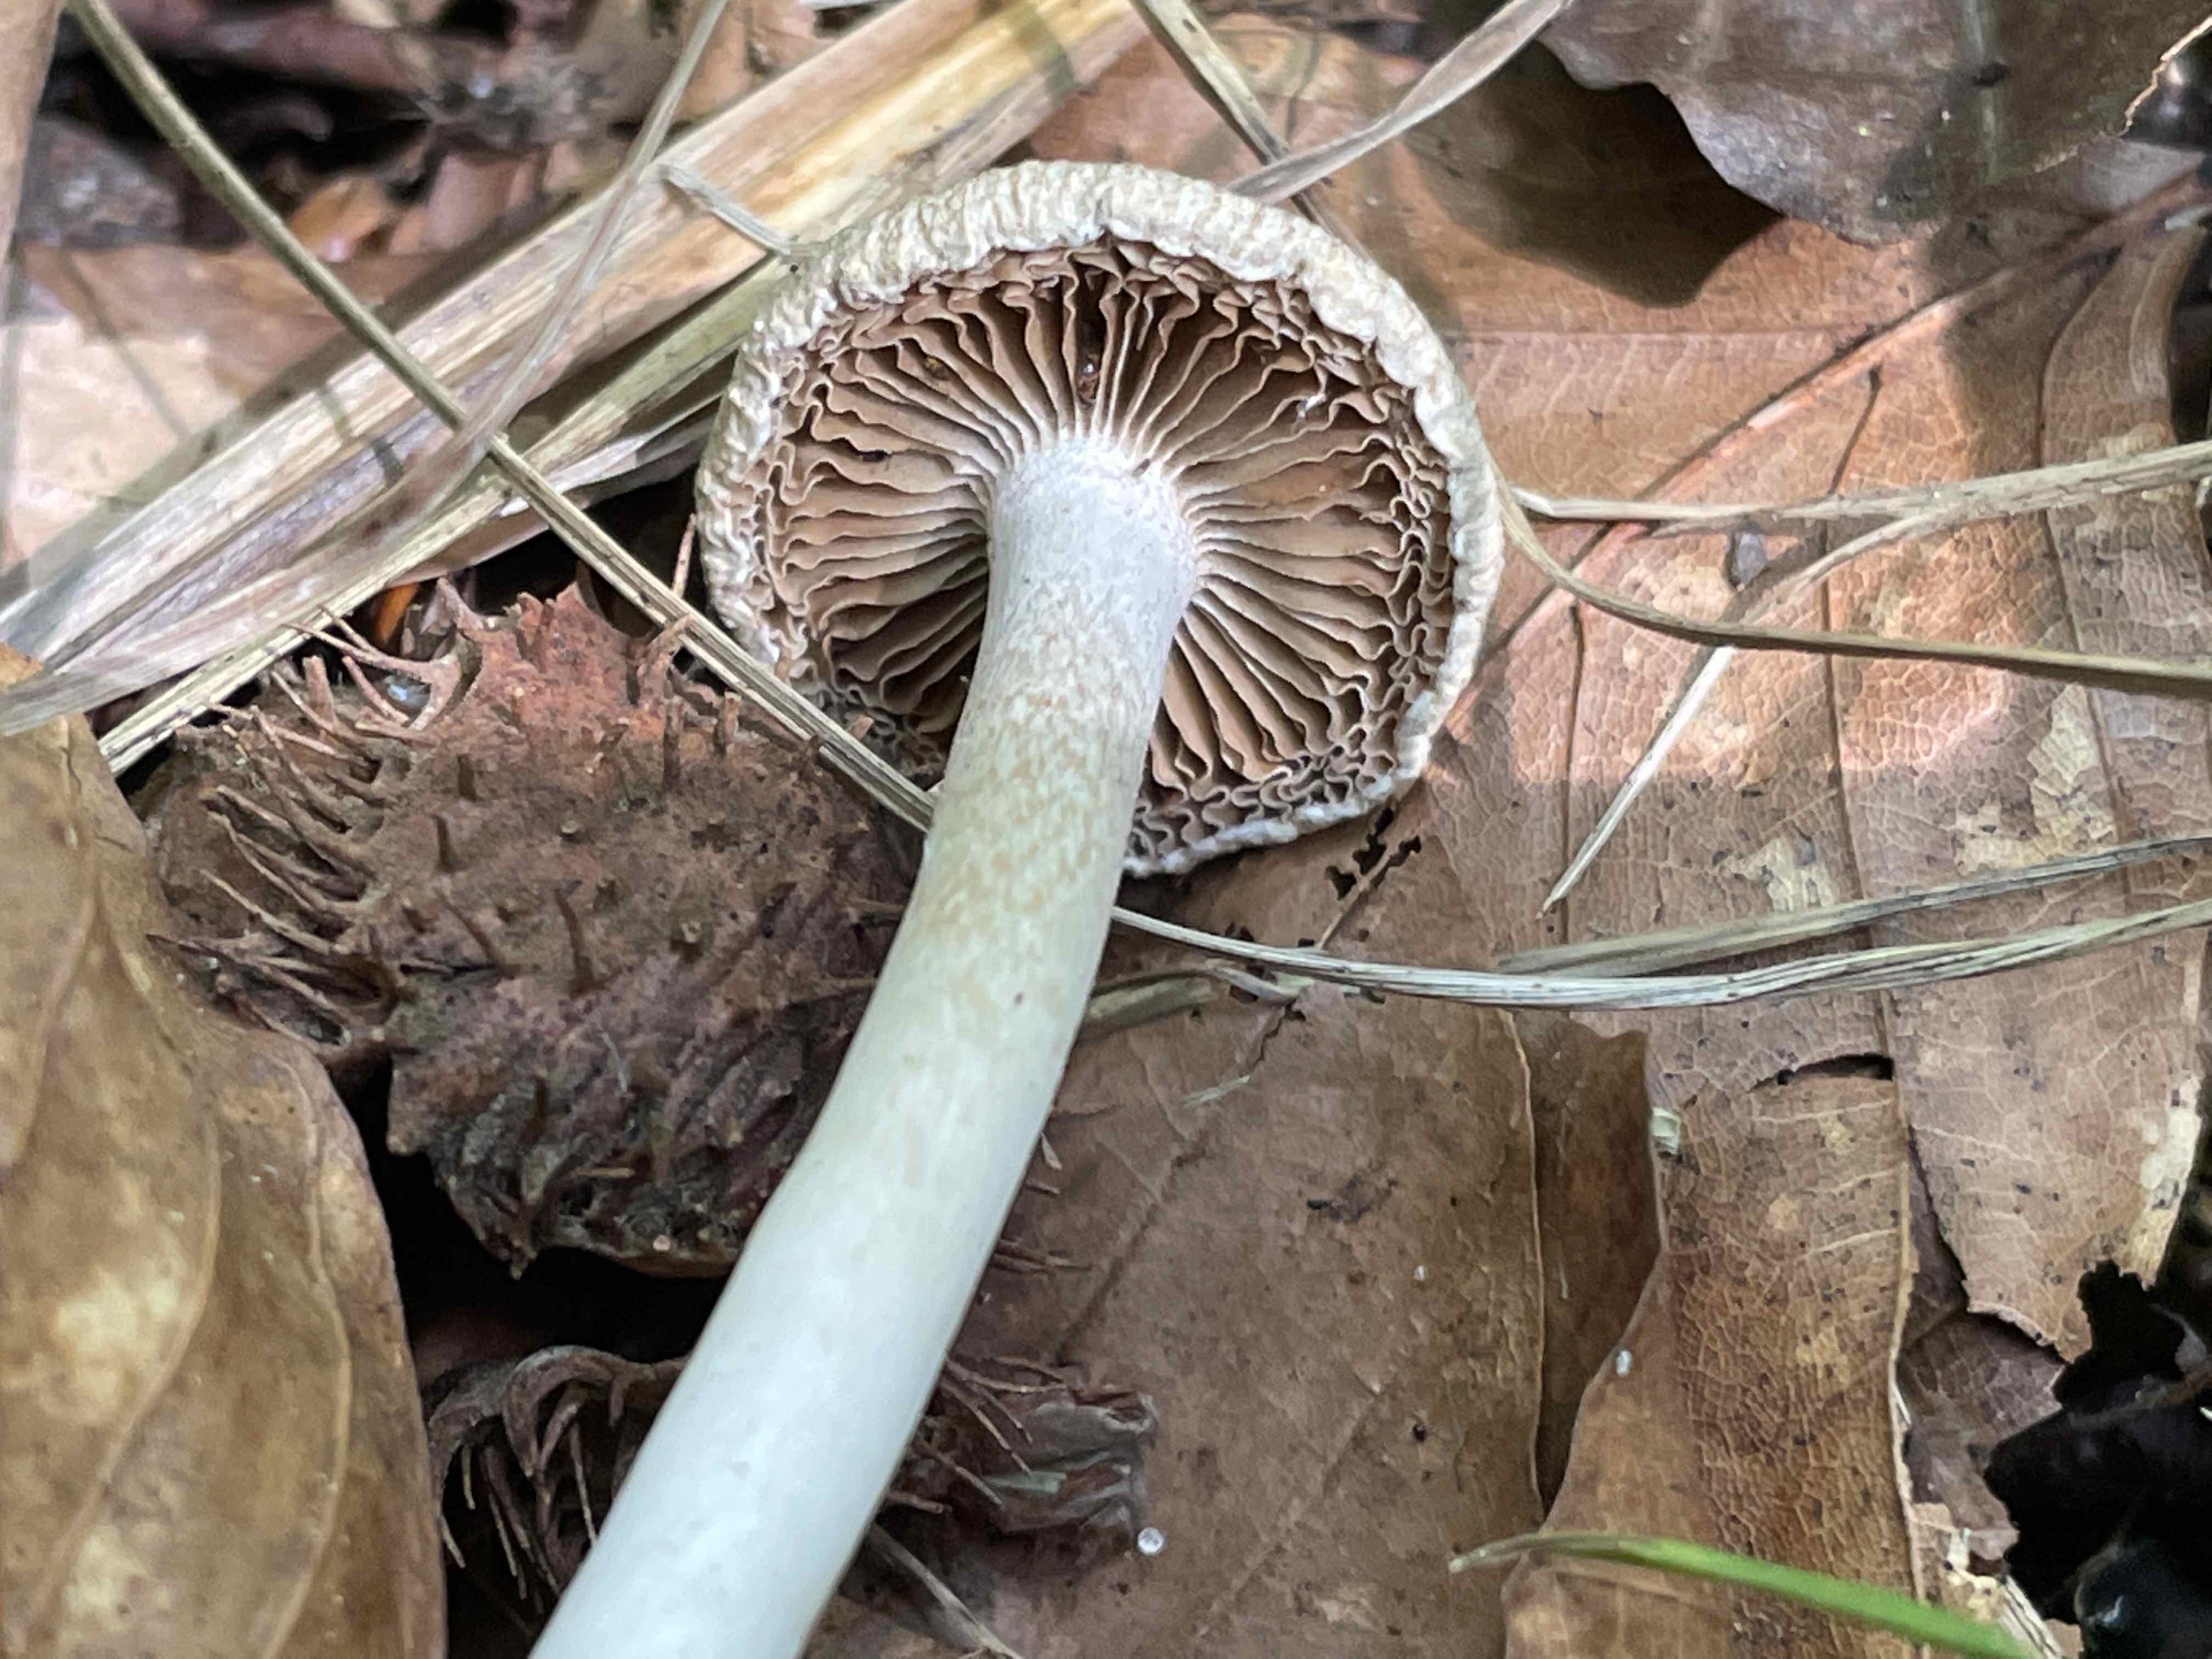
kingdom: Fungi
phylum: Basidiomycota
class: Agaricomycetes
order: Agaricales
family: Inocybaceae
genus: Inocybe
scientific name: Inocybe
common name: trævlhat
